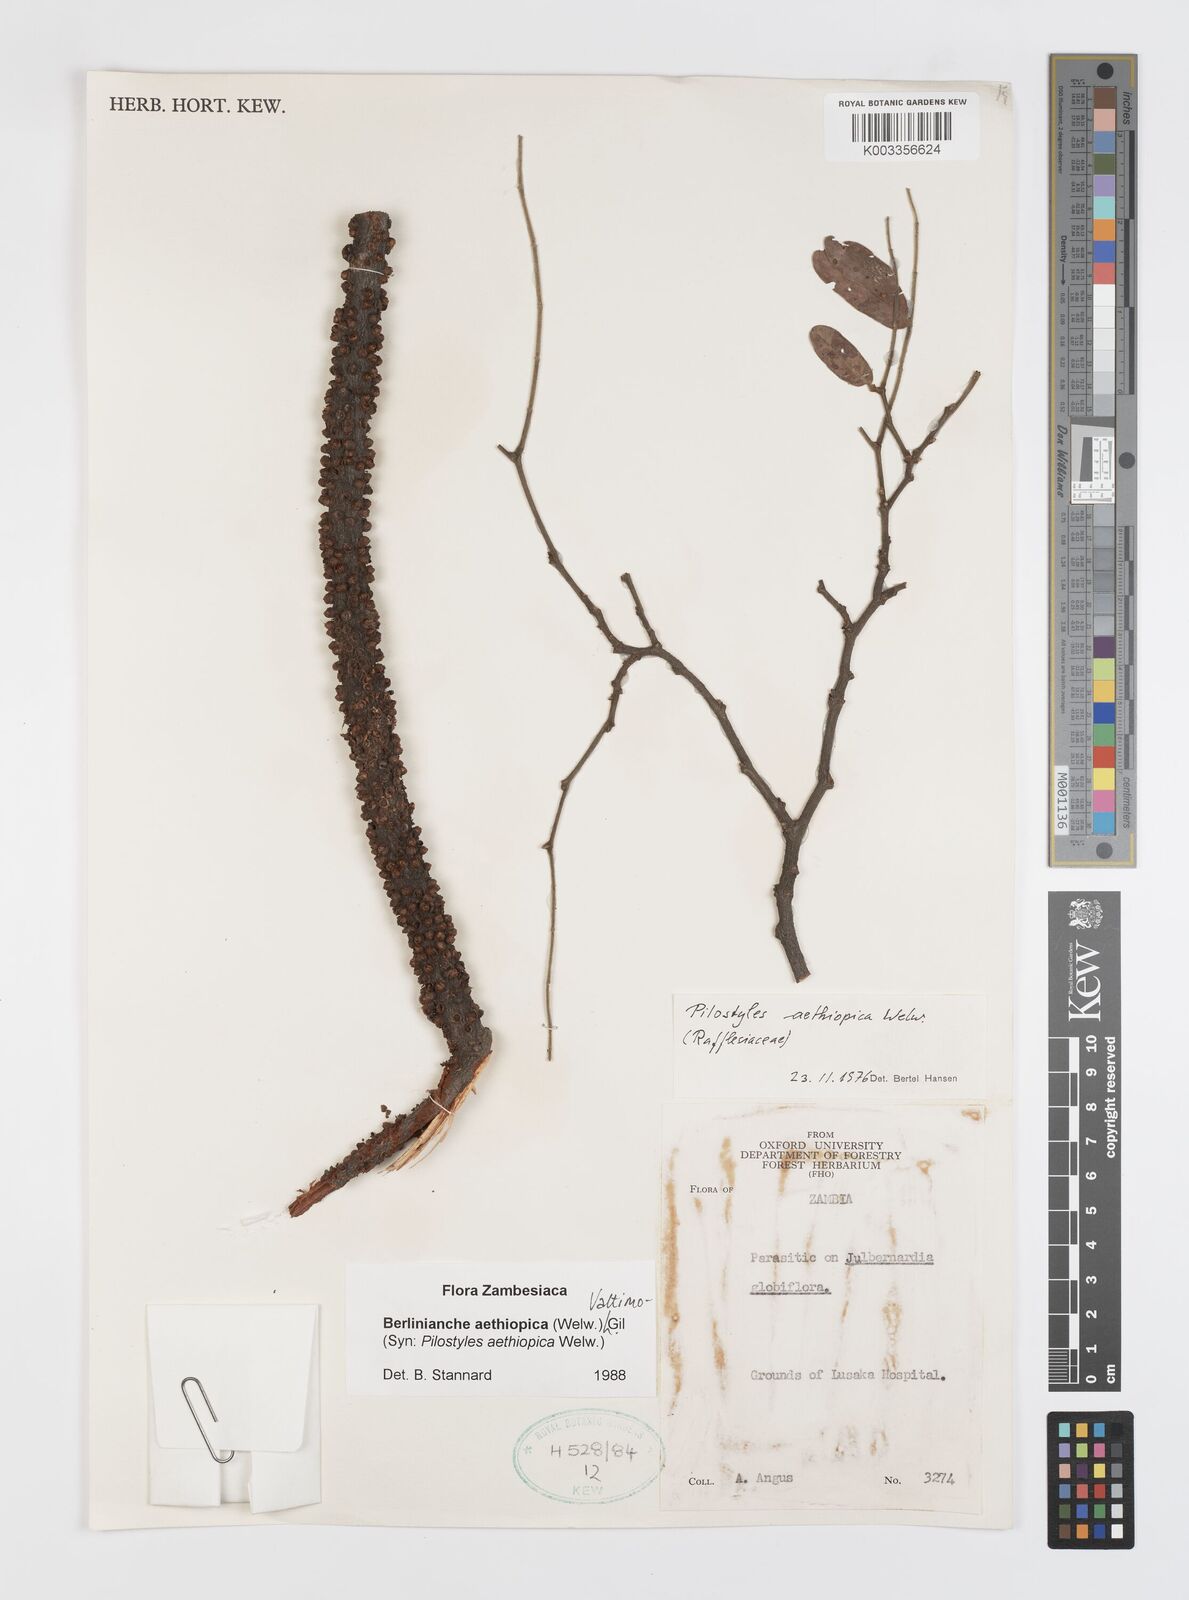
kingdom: Plantae
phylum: Tracheophyta
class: Magnoliopsida
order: Cucurbitales
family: Apodanthaceae
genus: Pilostyles
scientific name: Pilostyles aethiopica
